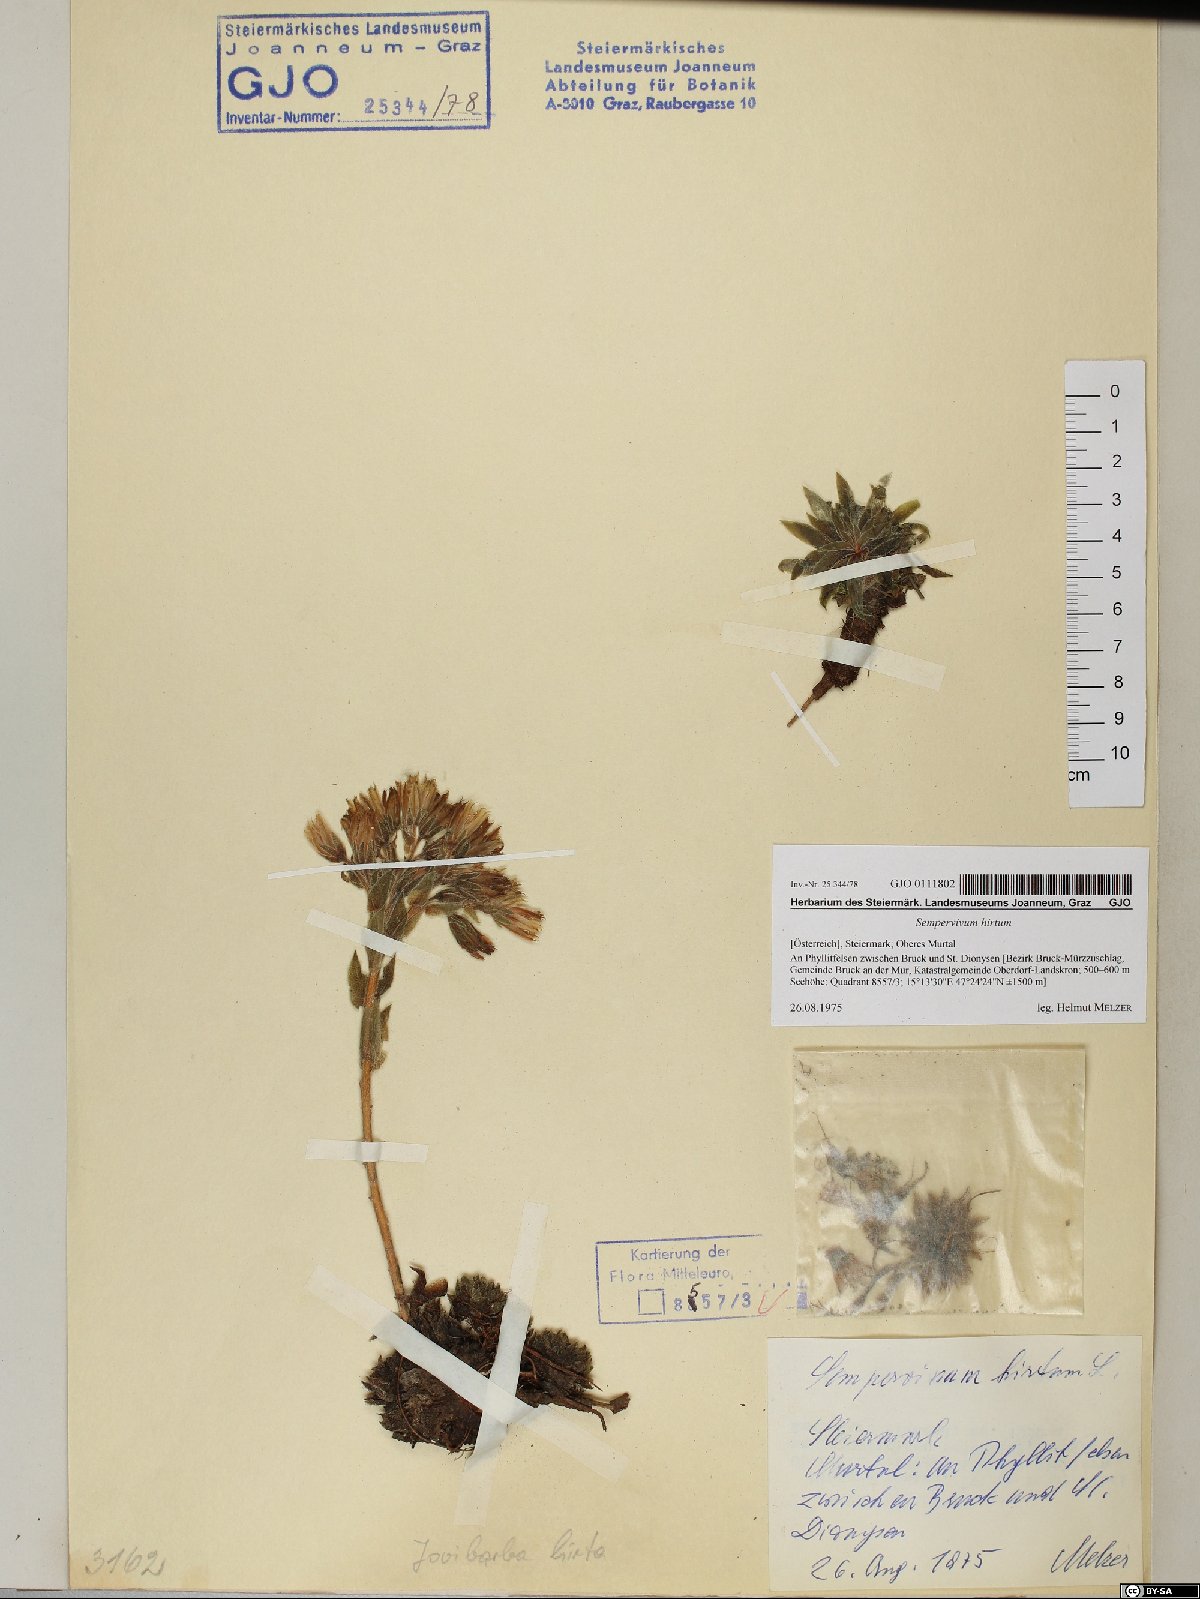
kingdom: Plantae
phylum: Tracheophyta
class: Magnoliopsida
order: Saxifragales
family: Crassulaceae
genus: Sempervivum
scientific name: Sempervivum globiferum
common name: Rolling hen-and-chicks
